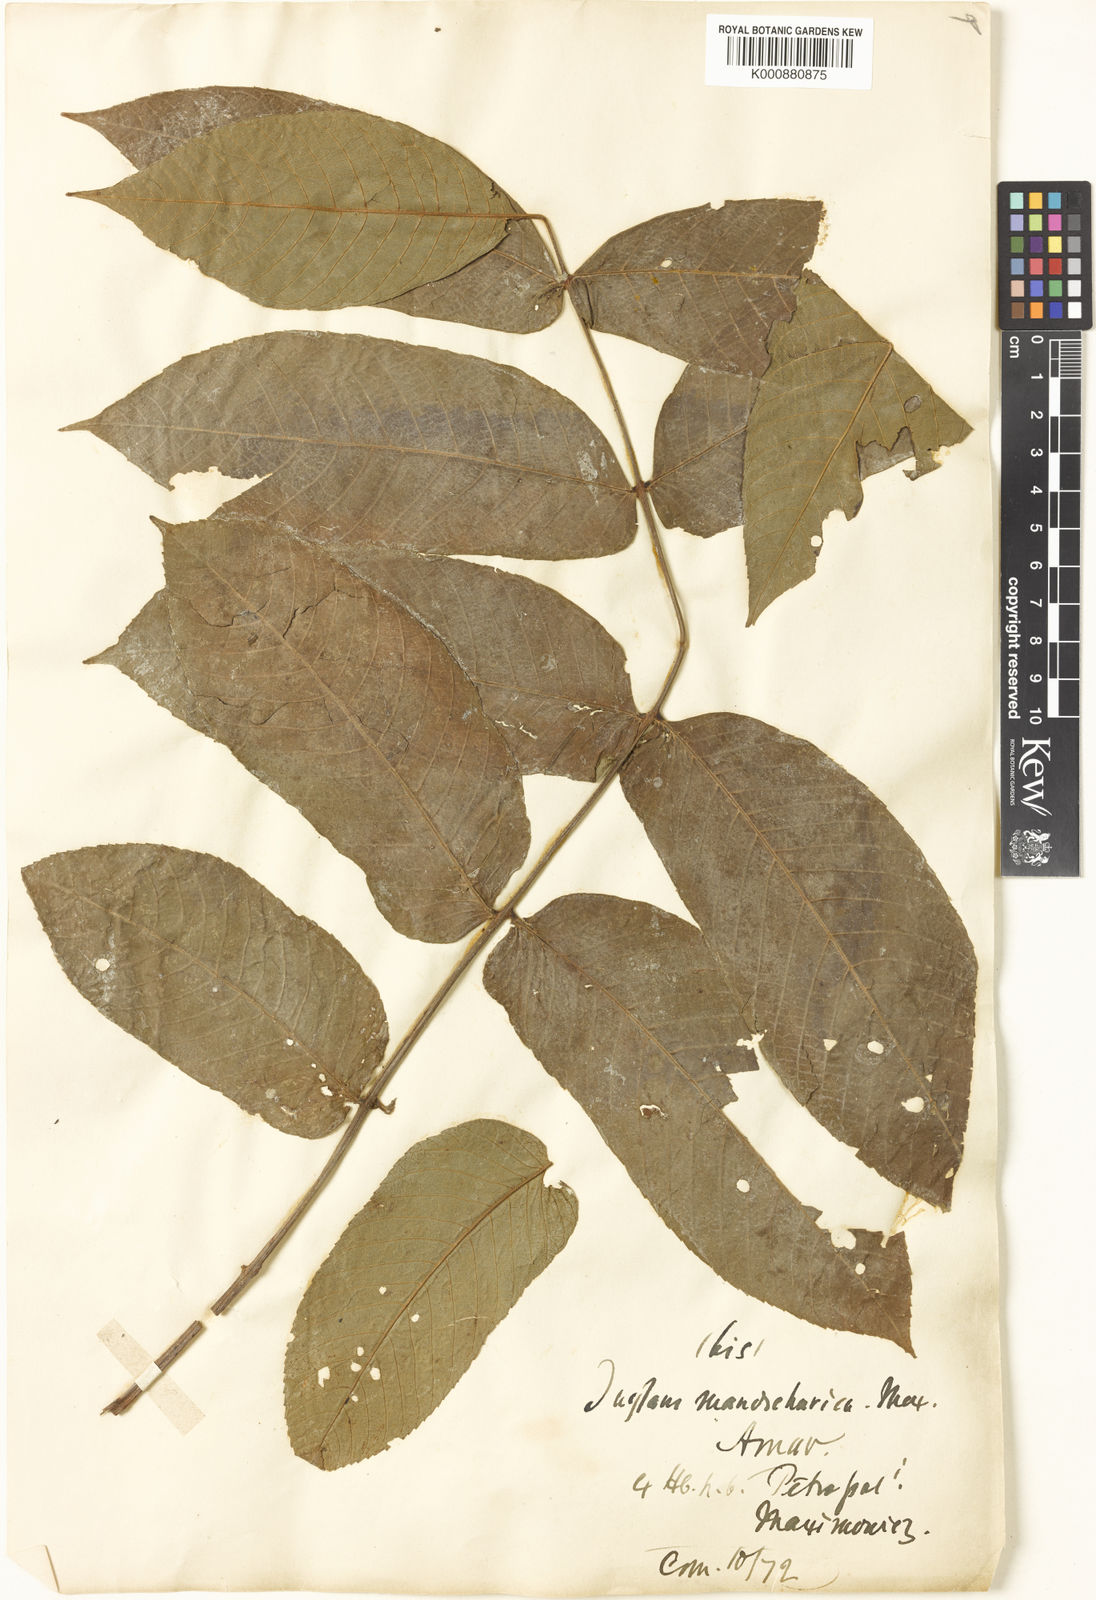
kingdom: Plantae
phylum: Tracheophyta
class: Magnoliopsida
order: Fagales
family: Juglandaceae
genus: Juglans
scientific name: Juglans mandshurica
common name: Manchurian walnut
